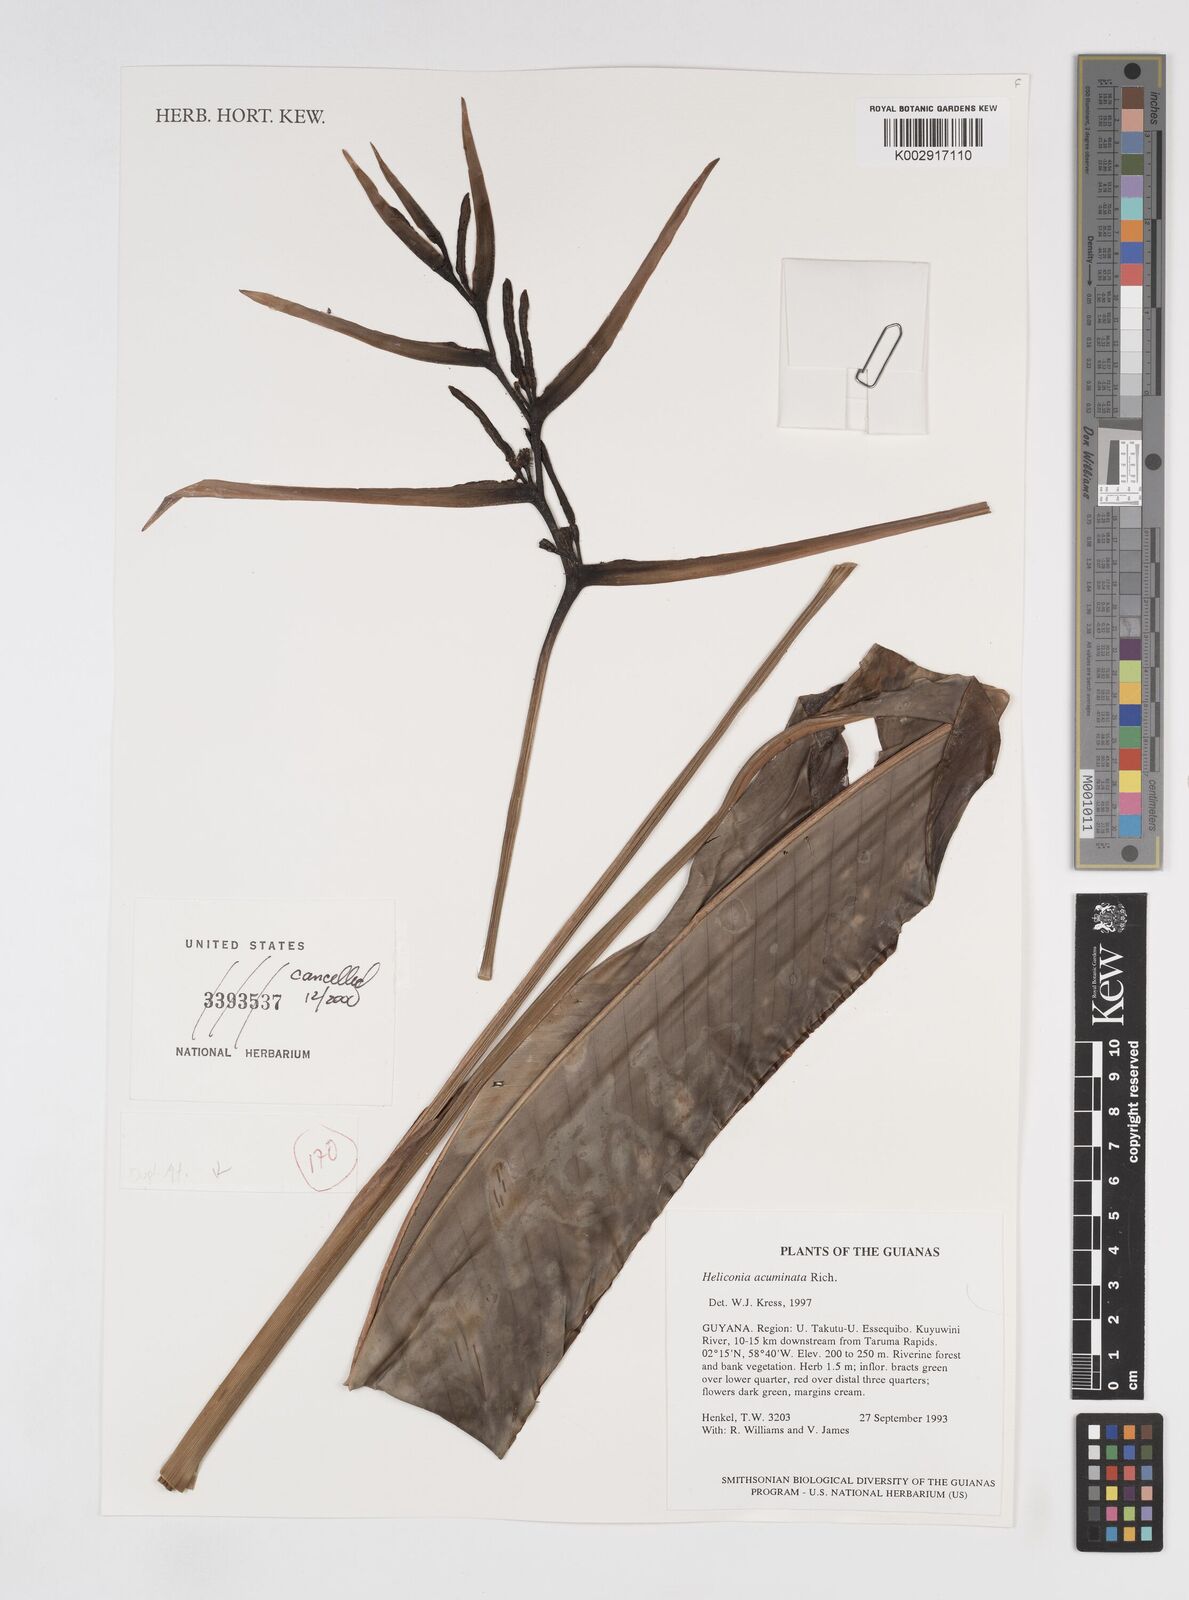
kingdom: Plantae
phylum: Tracheophyta
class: Liliopsida
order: Zingiberales
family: Heliconiaceae
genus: Heliconia
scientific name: Heliconia acuminata
